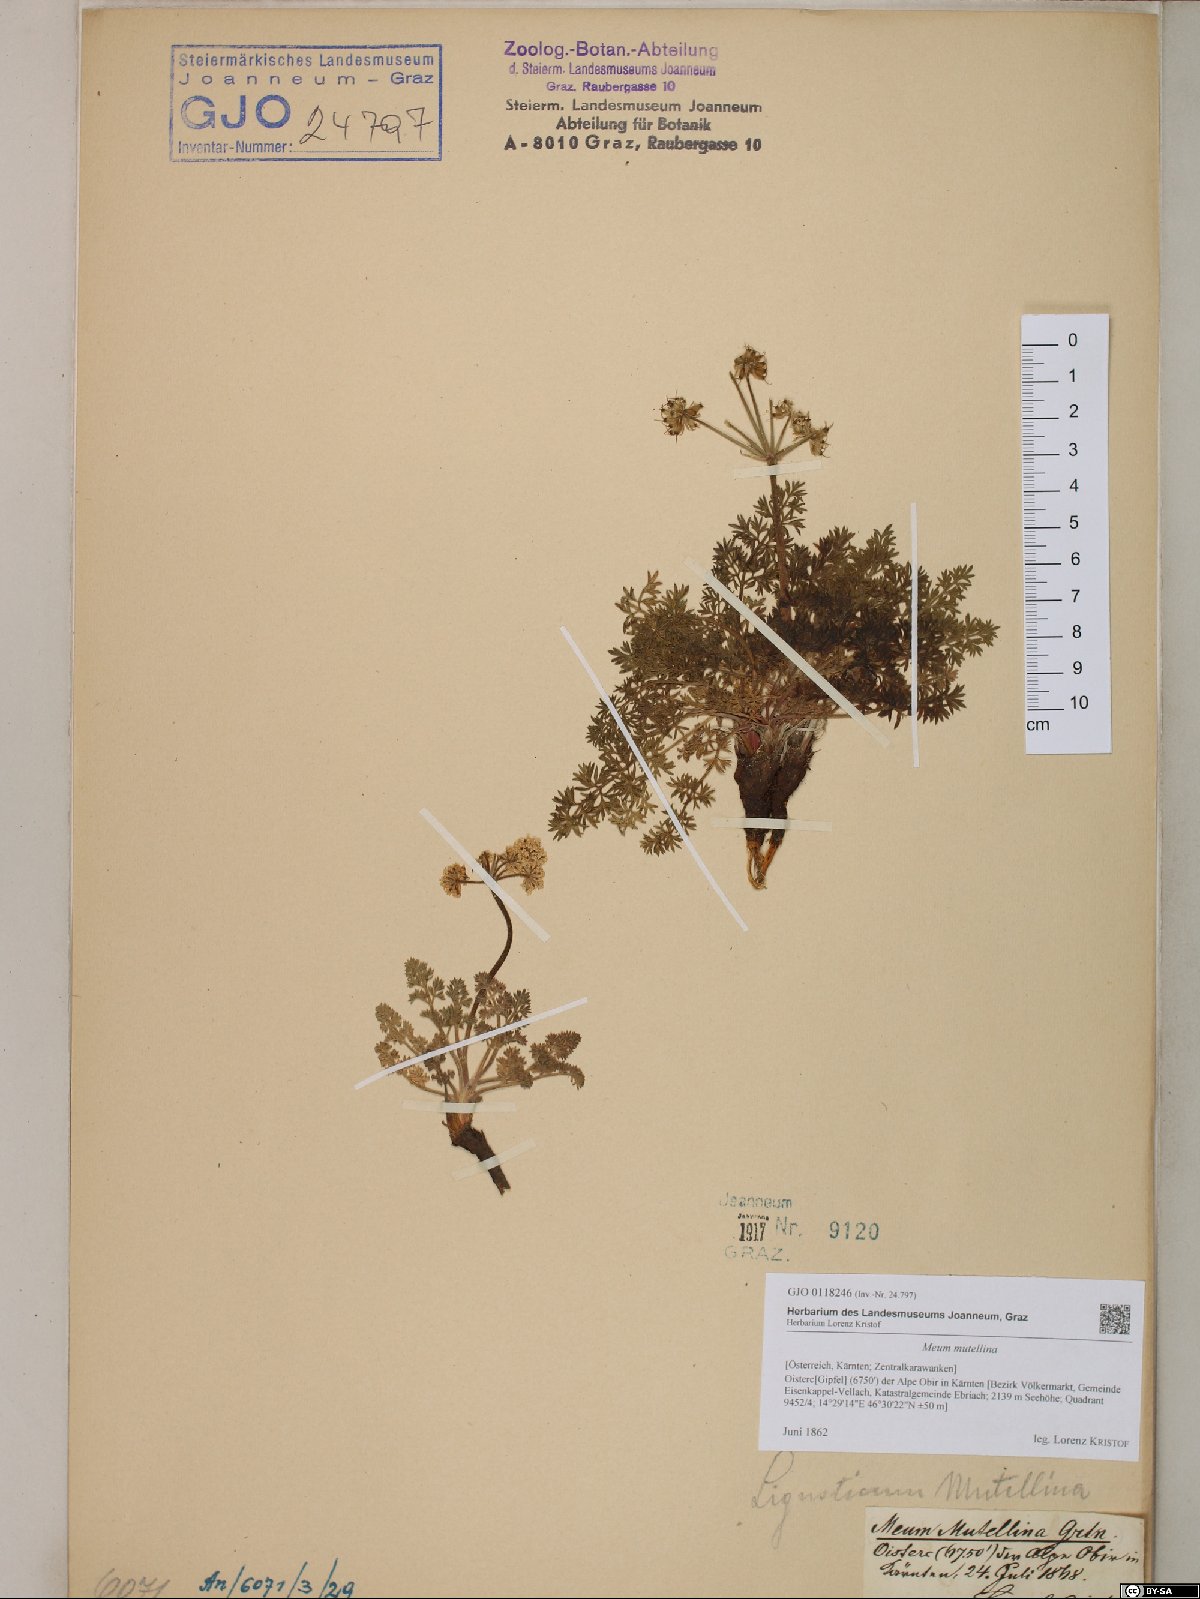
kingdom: Plantae
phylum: Tracheophyta
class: Magnoliopsida
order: Apiales
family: Apiaceae
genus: Mutellina
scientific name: Mutellina adonidifolia
